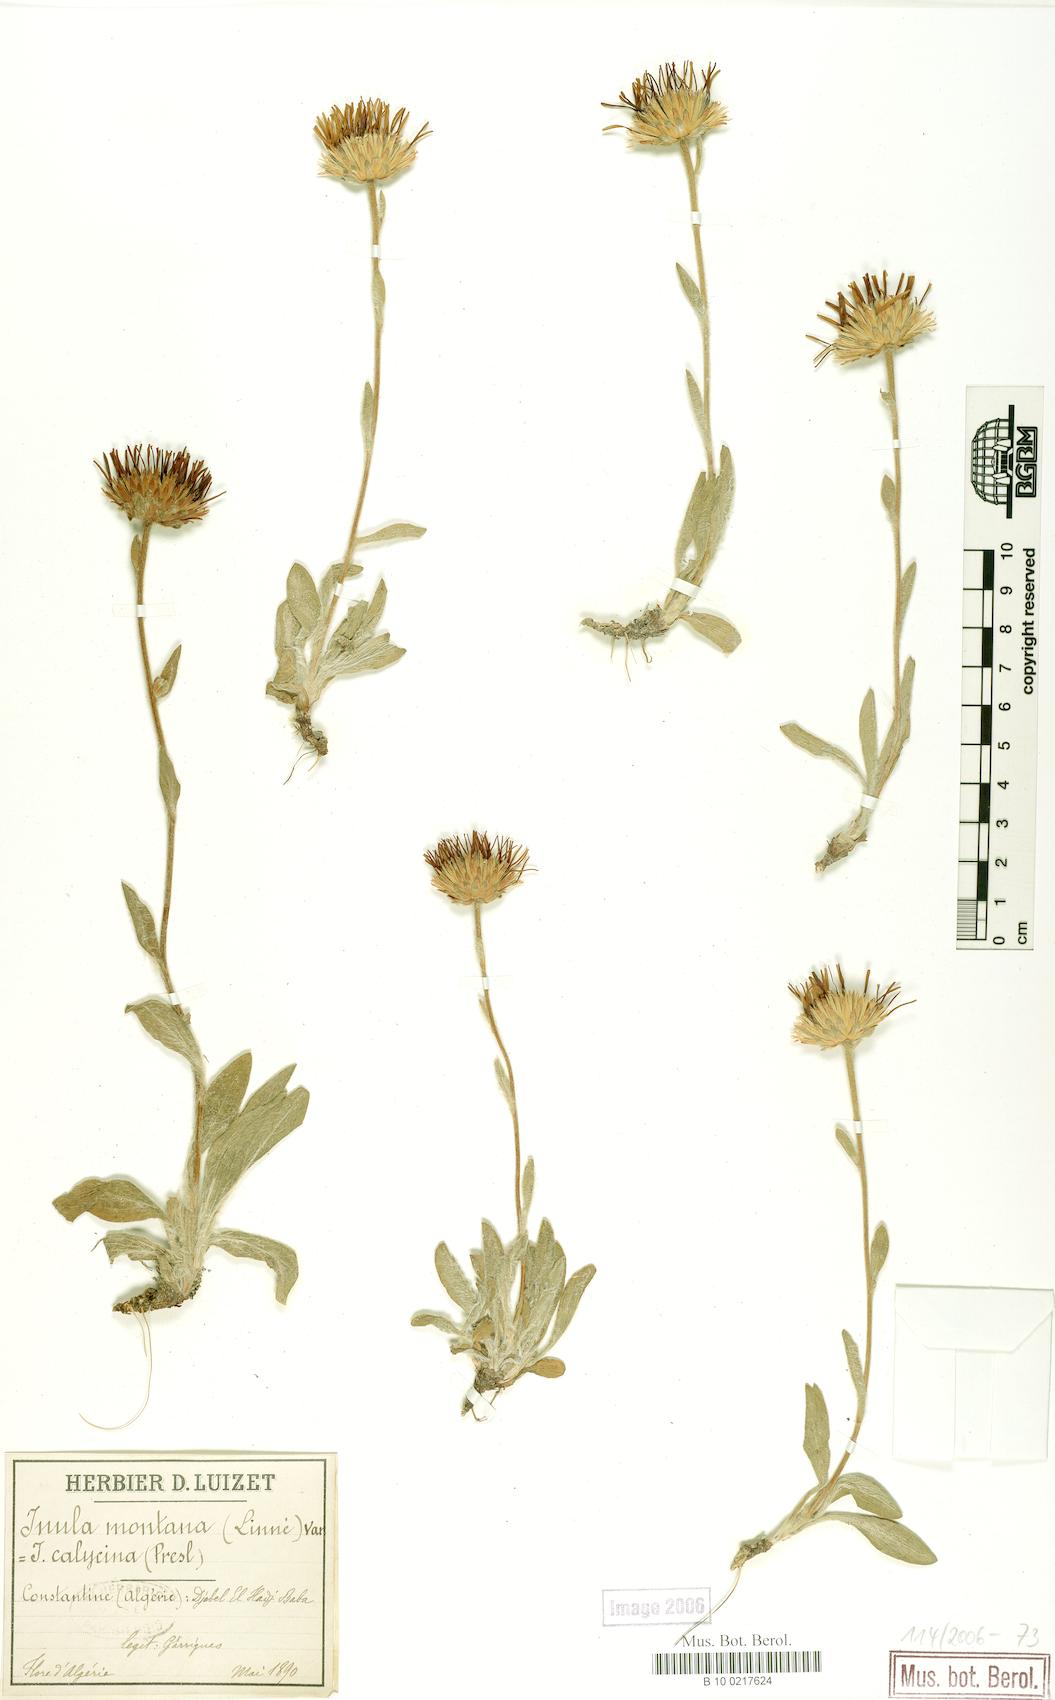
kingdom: Plantae
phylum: Tracheophyta
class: Magnoliopsida
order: Asterales
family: Asteraceae
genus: Pentanema
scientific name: Pentanema montanum
